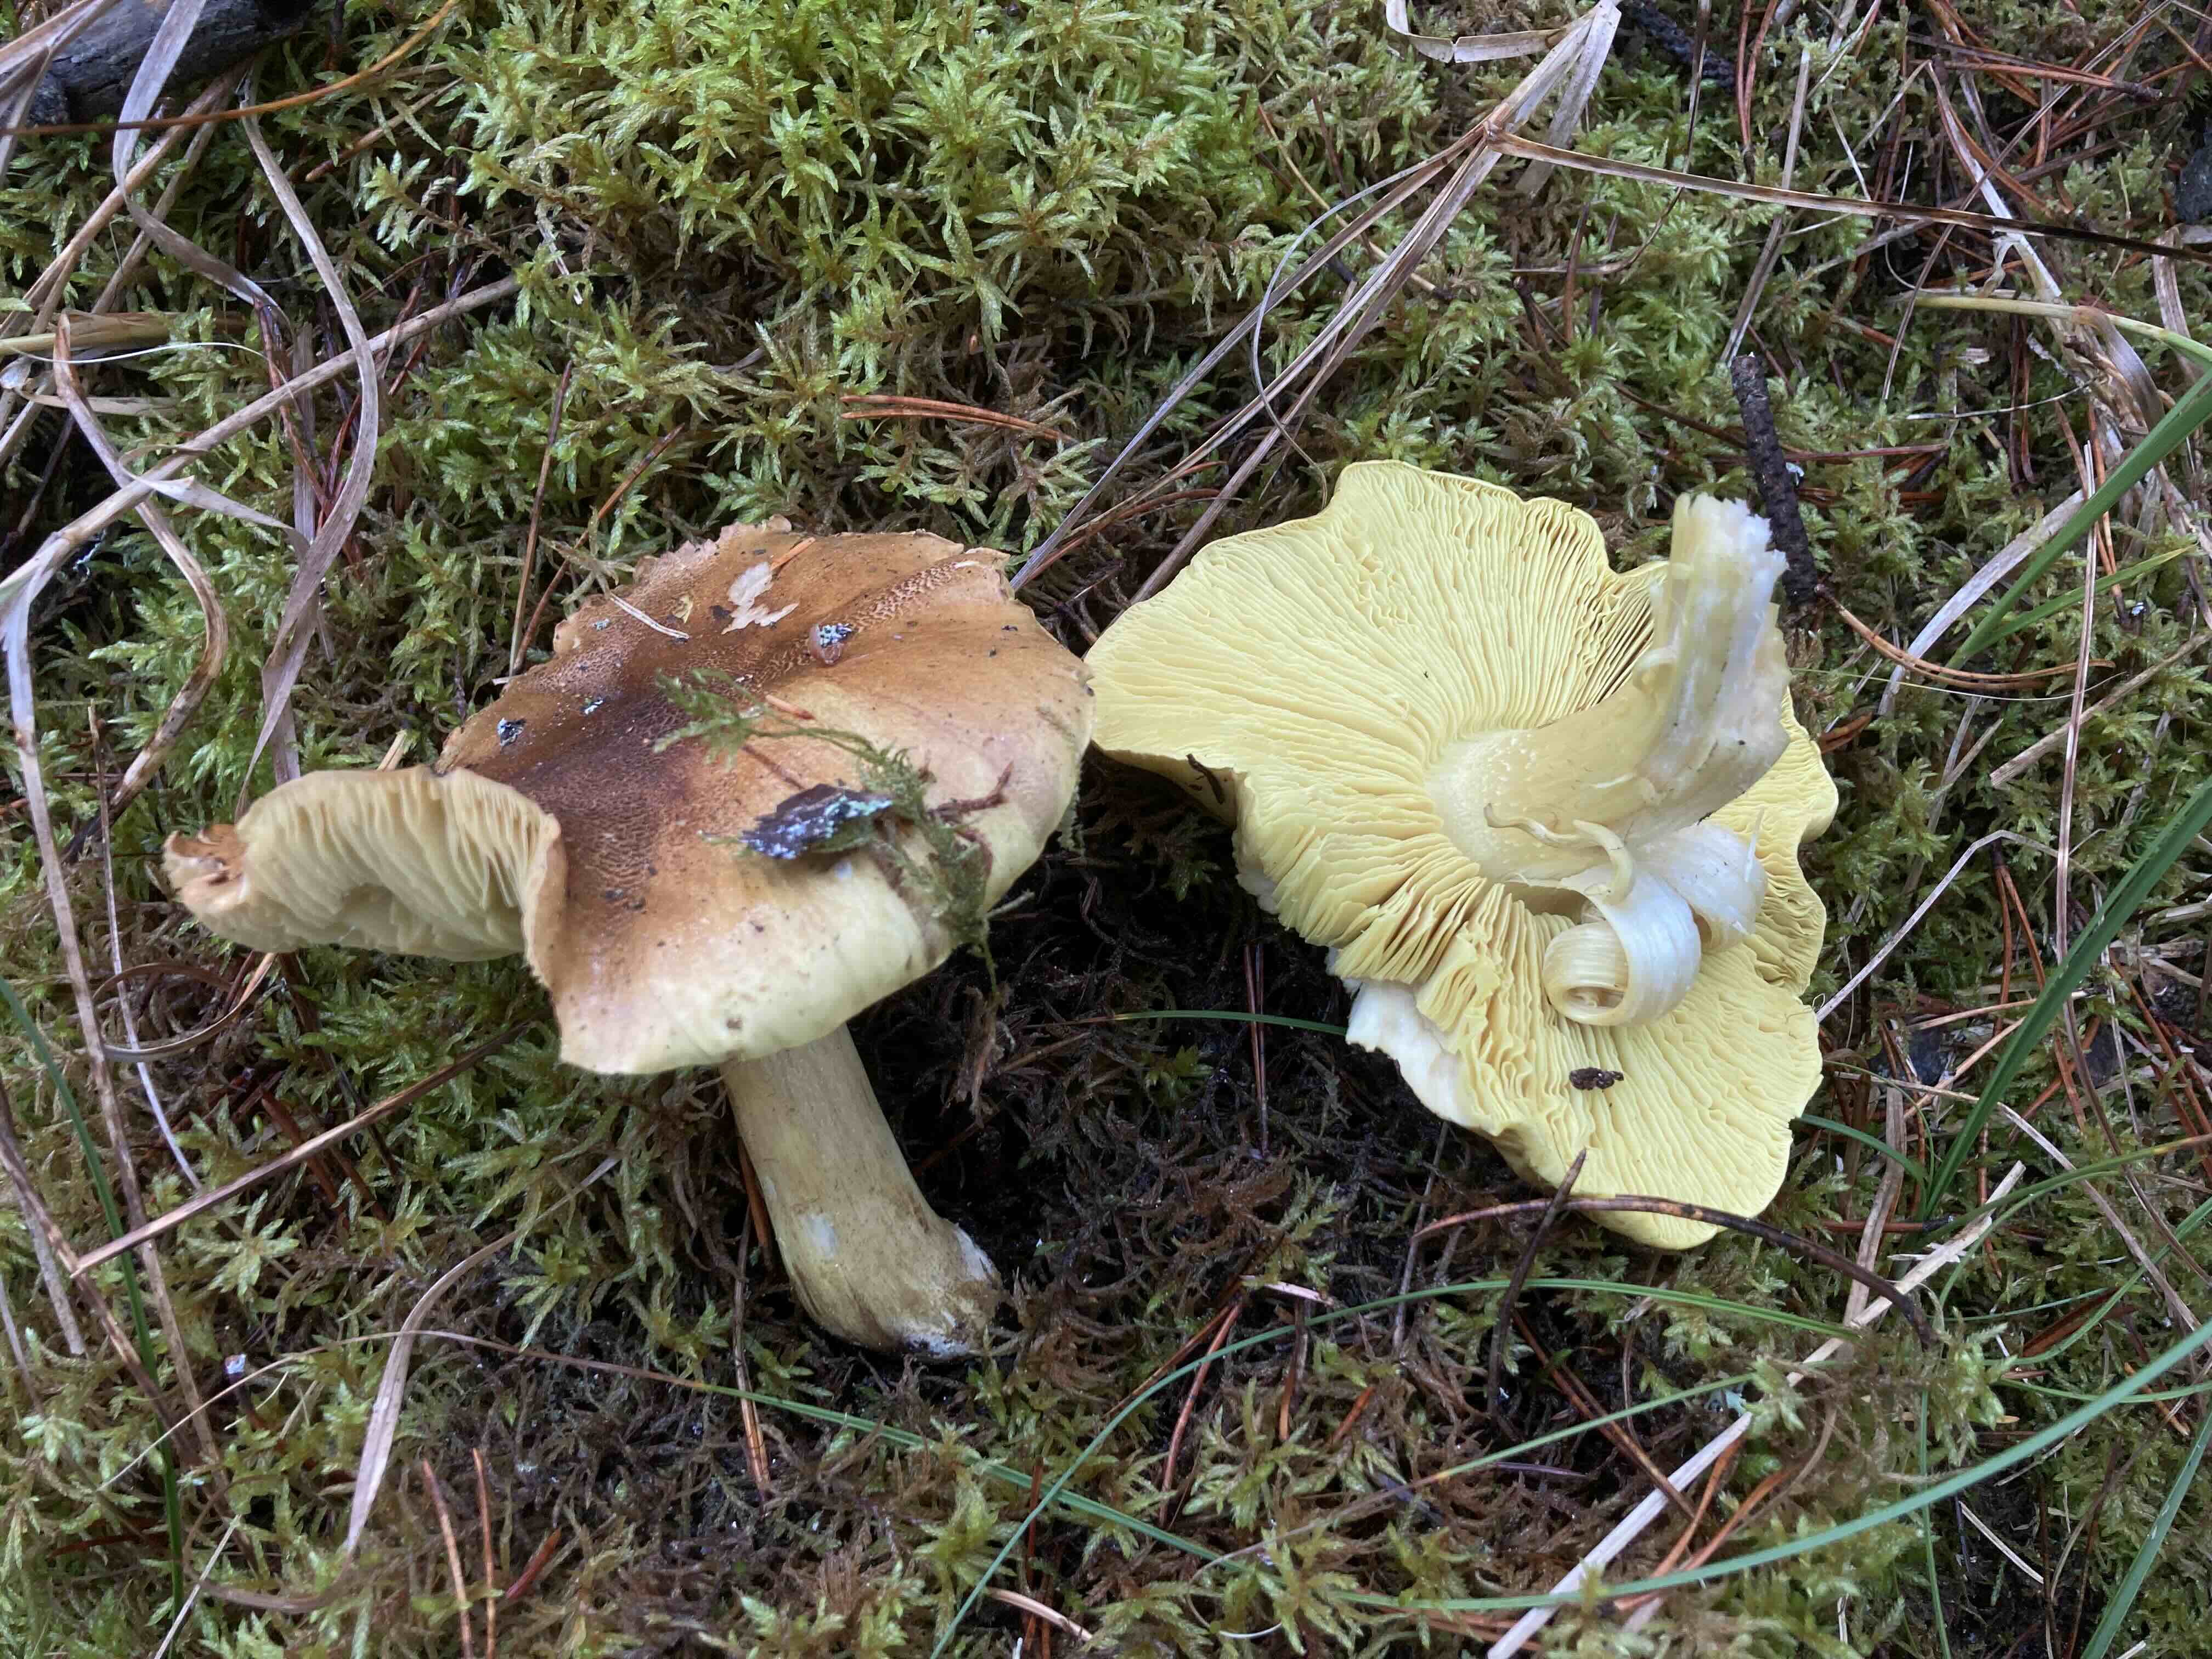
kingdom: Fungi
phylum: Basidiomycota
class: Agaricomycetes
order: Agaricales
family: Tricholomataceae
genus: Tricholoma
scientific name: Tricholoma equestre
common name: ægte ridderhat
